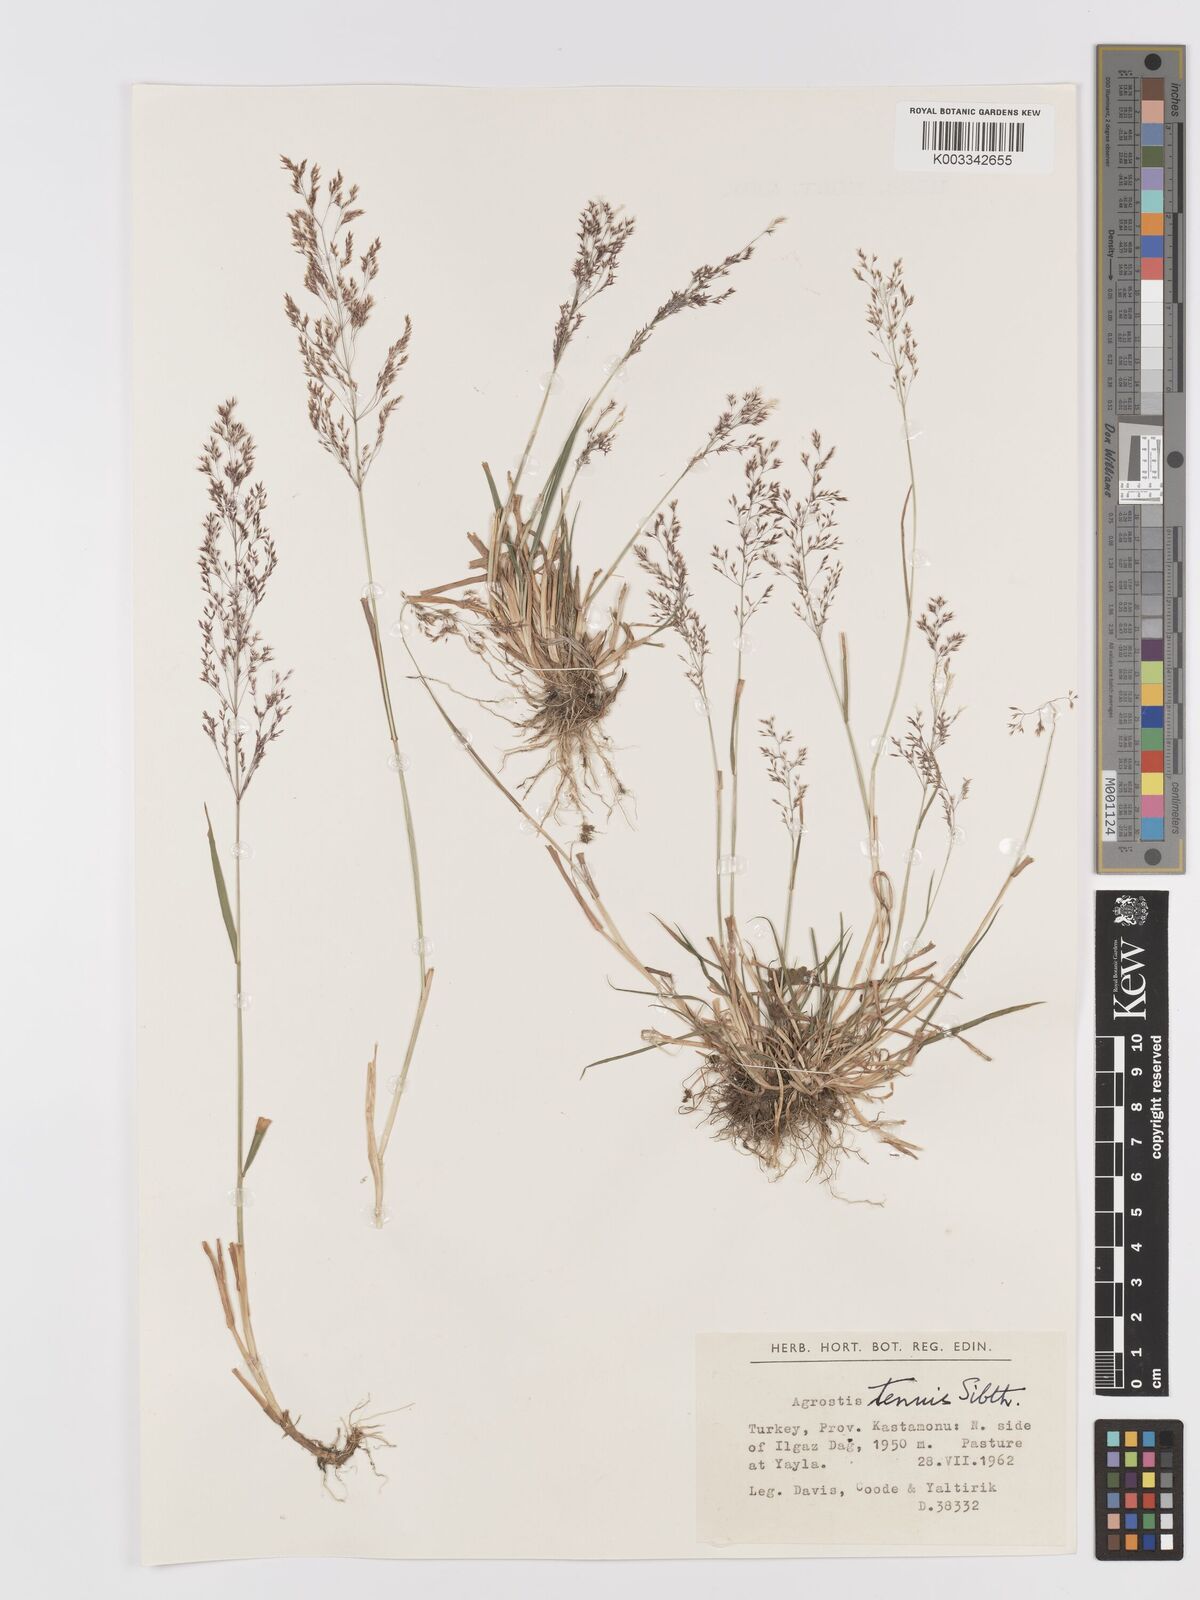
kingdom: Plantae
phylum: Tracheophyta
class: Liliopsida
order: Poales
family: Poaceae
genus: Agrostis
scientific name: Agrostis capillaris
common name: Colonial bentgrass
